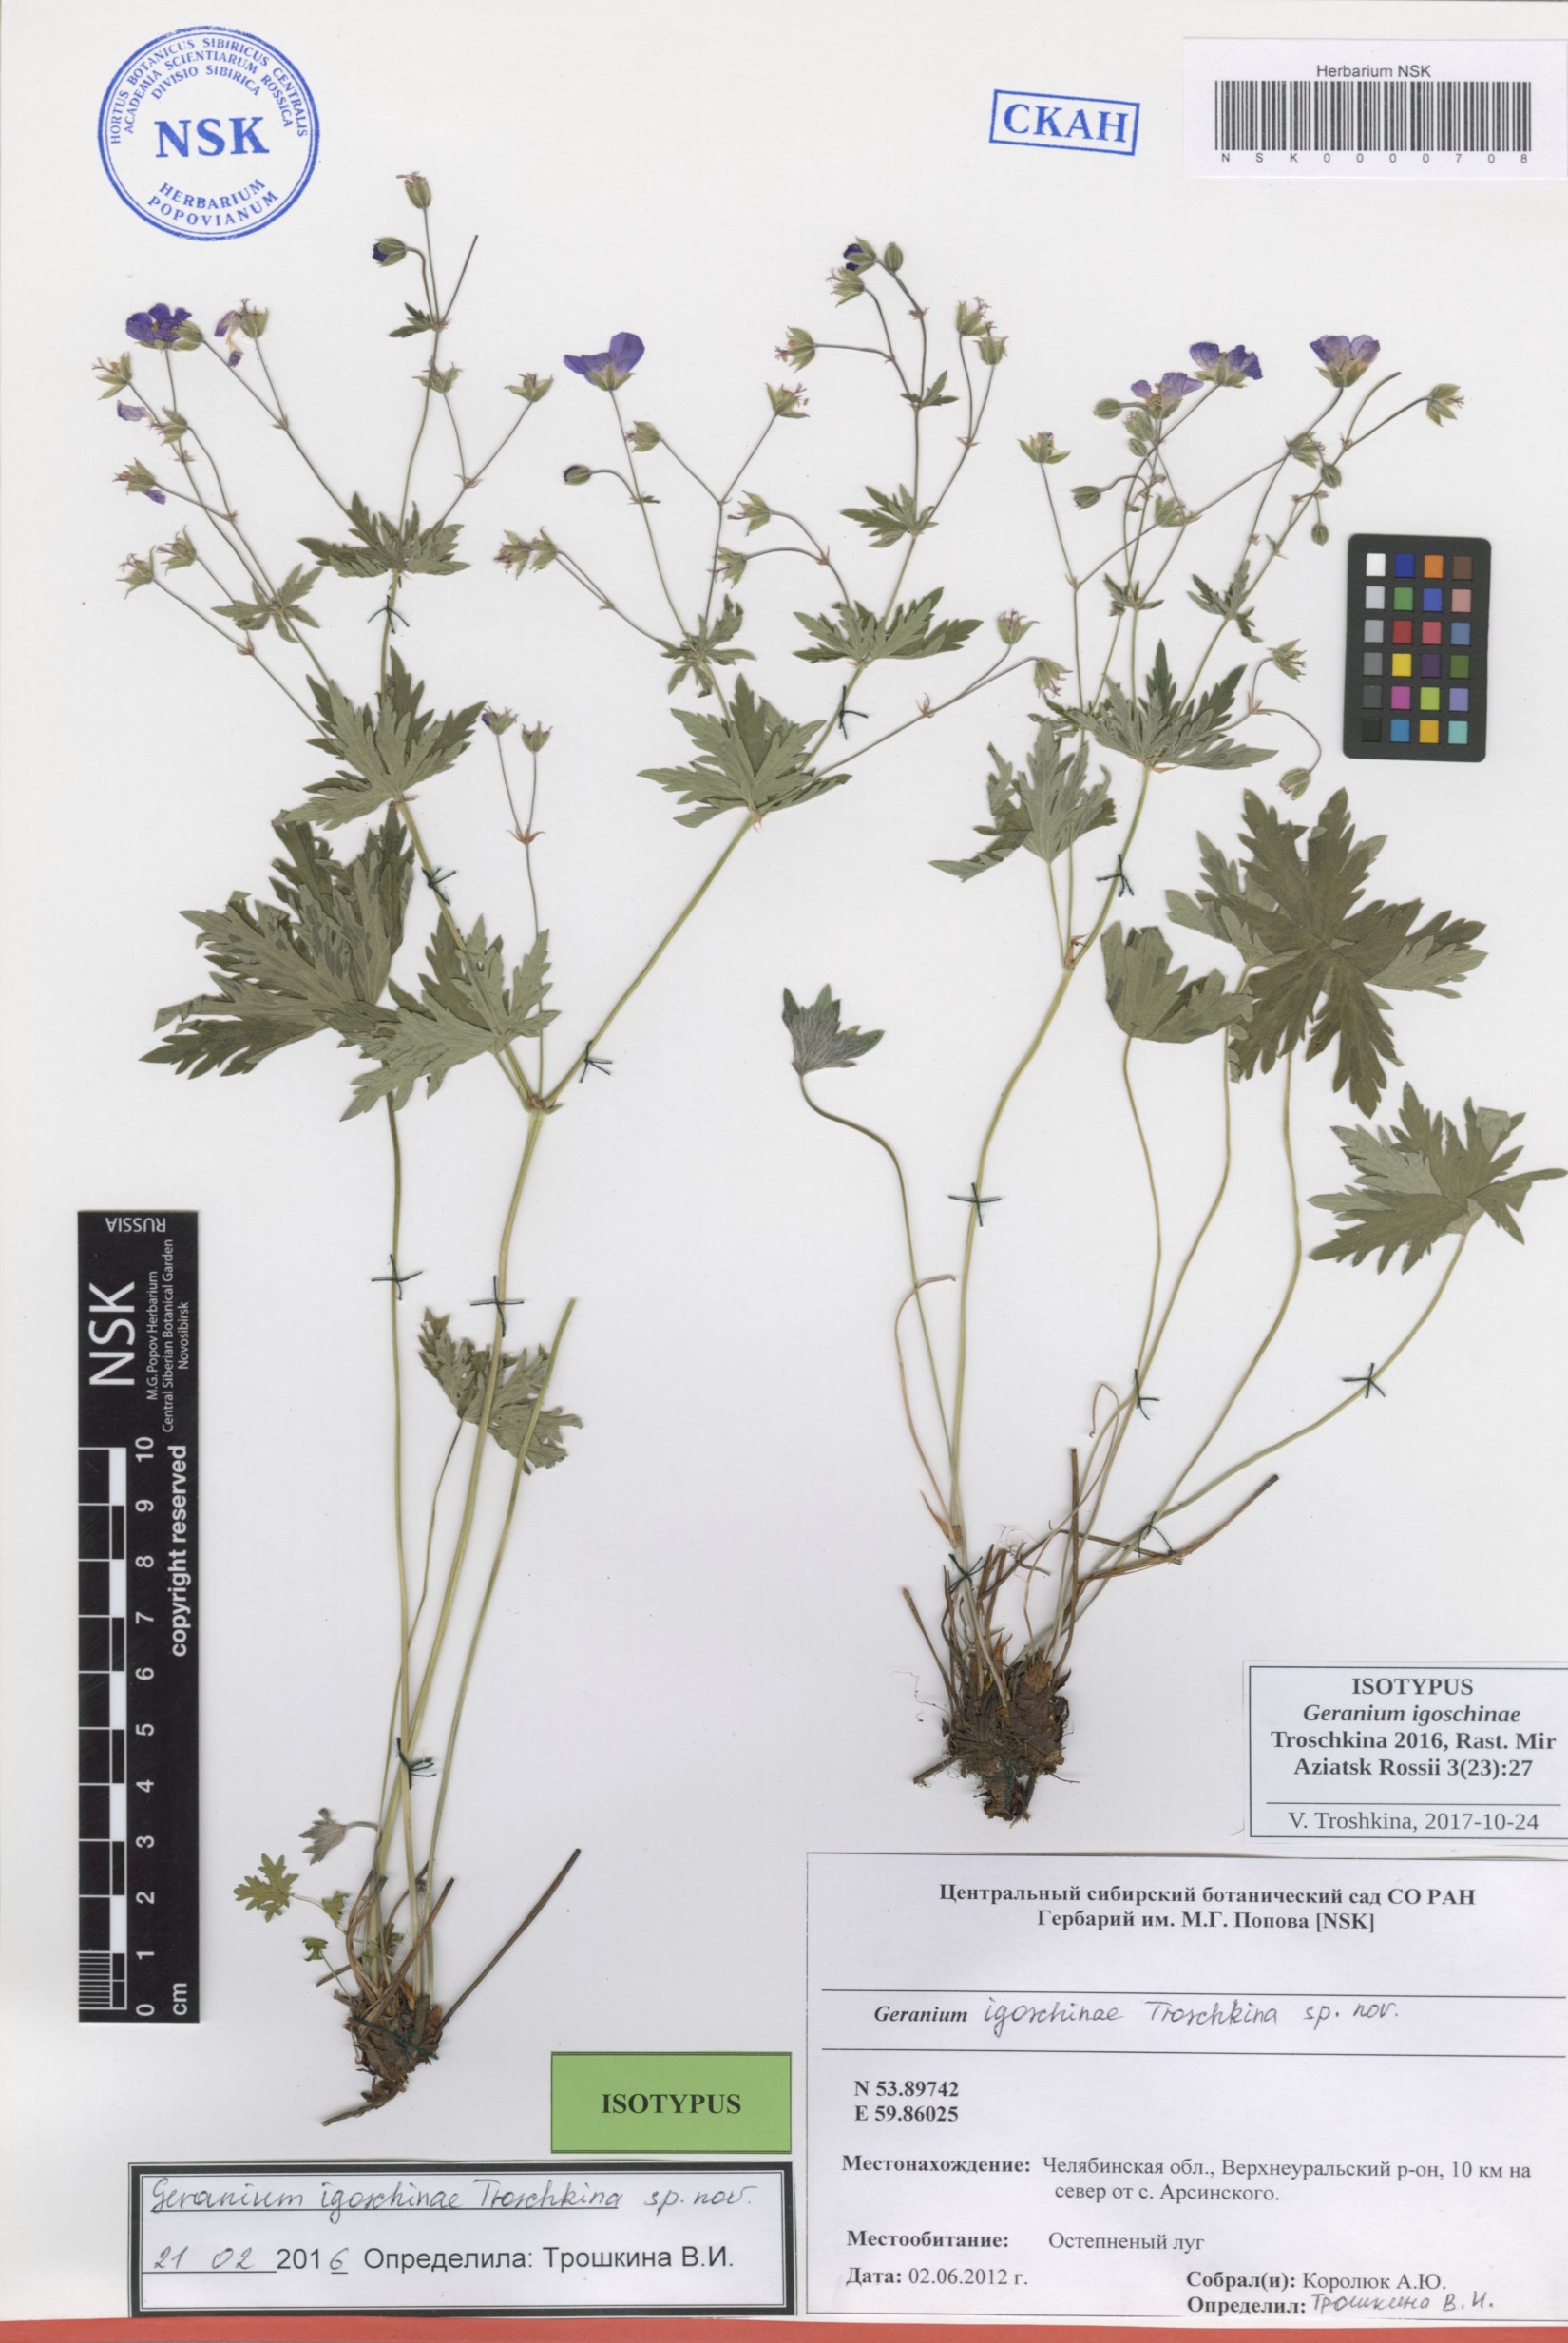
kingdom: Plantae
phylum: Tracheophyta
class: Magnoliopsida
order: Geraniales
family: Geraniaceae
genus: Geranium
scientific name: Geranium igoschinae
